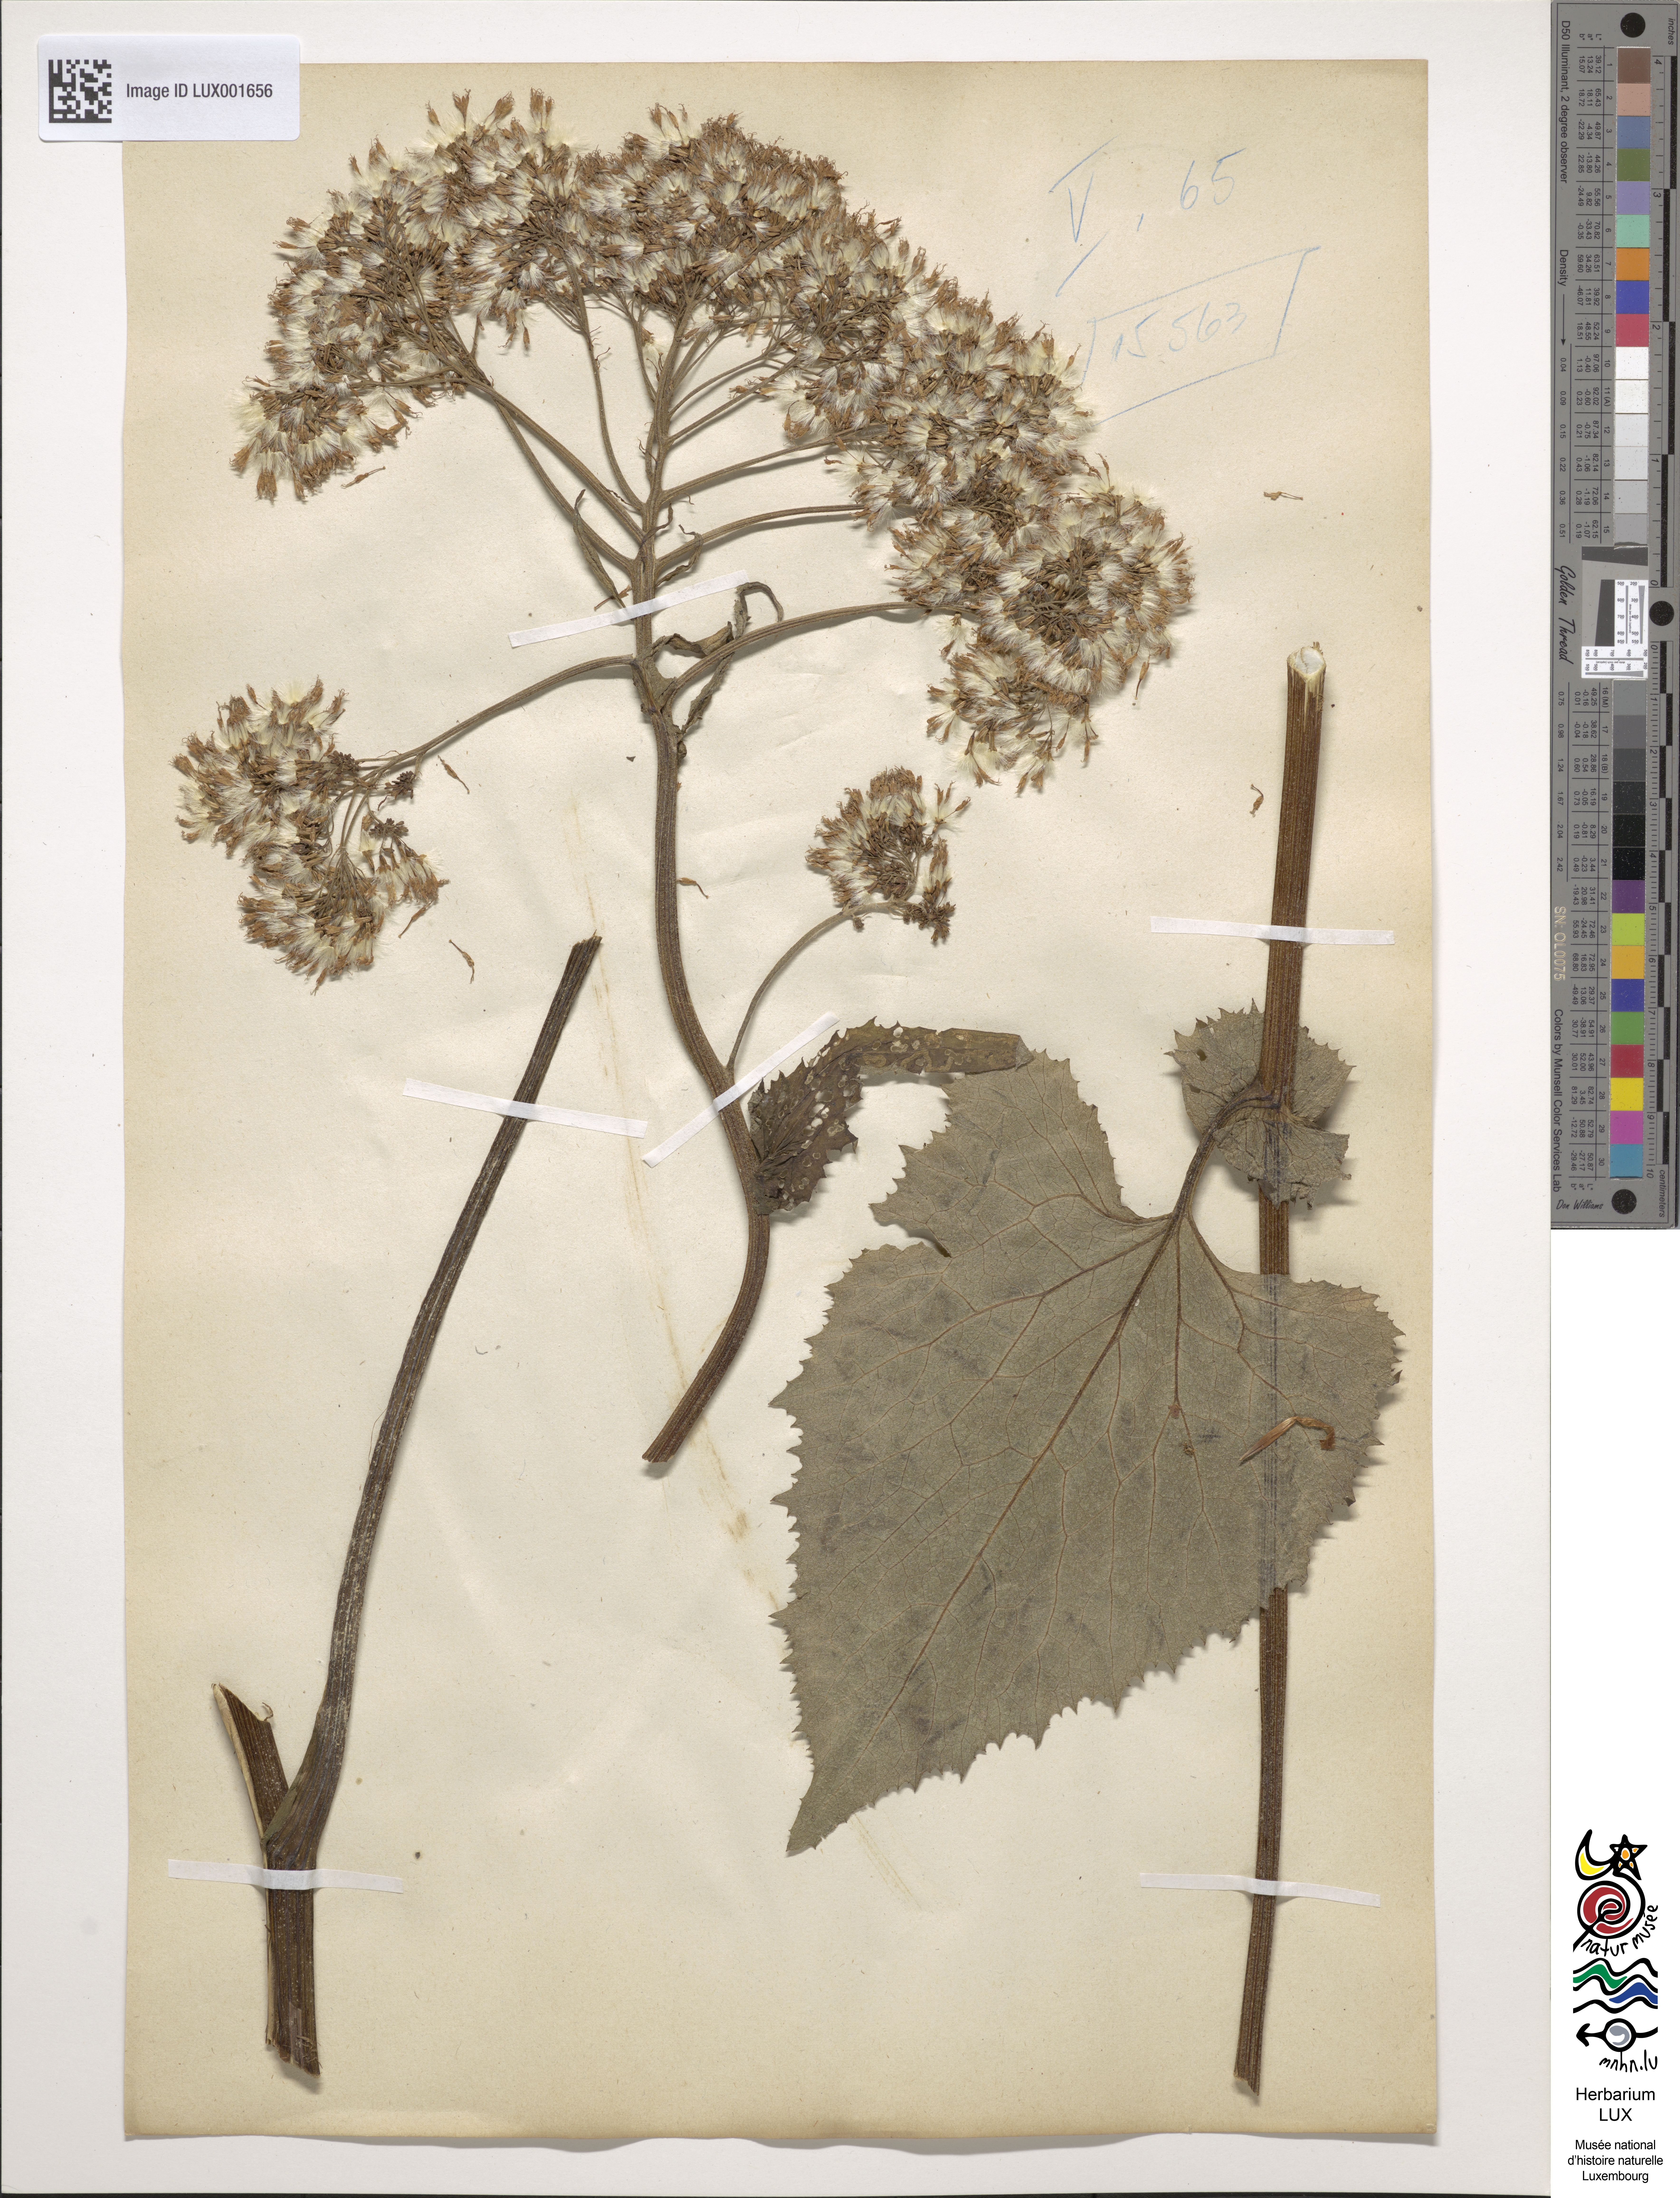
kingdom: Plantae
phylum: Tracheophyta
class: Magnoliopsida
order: Asterales
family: Asteraceae
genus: Adenostyles
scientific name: Adenostyles alliariae
